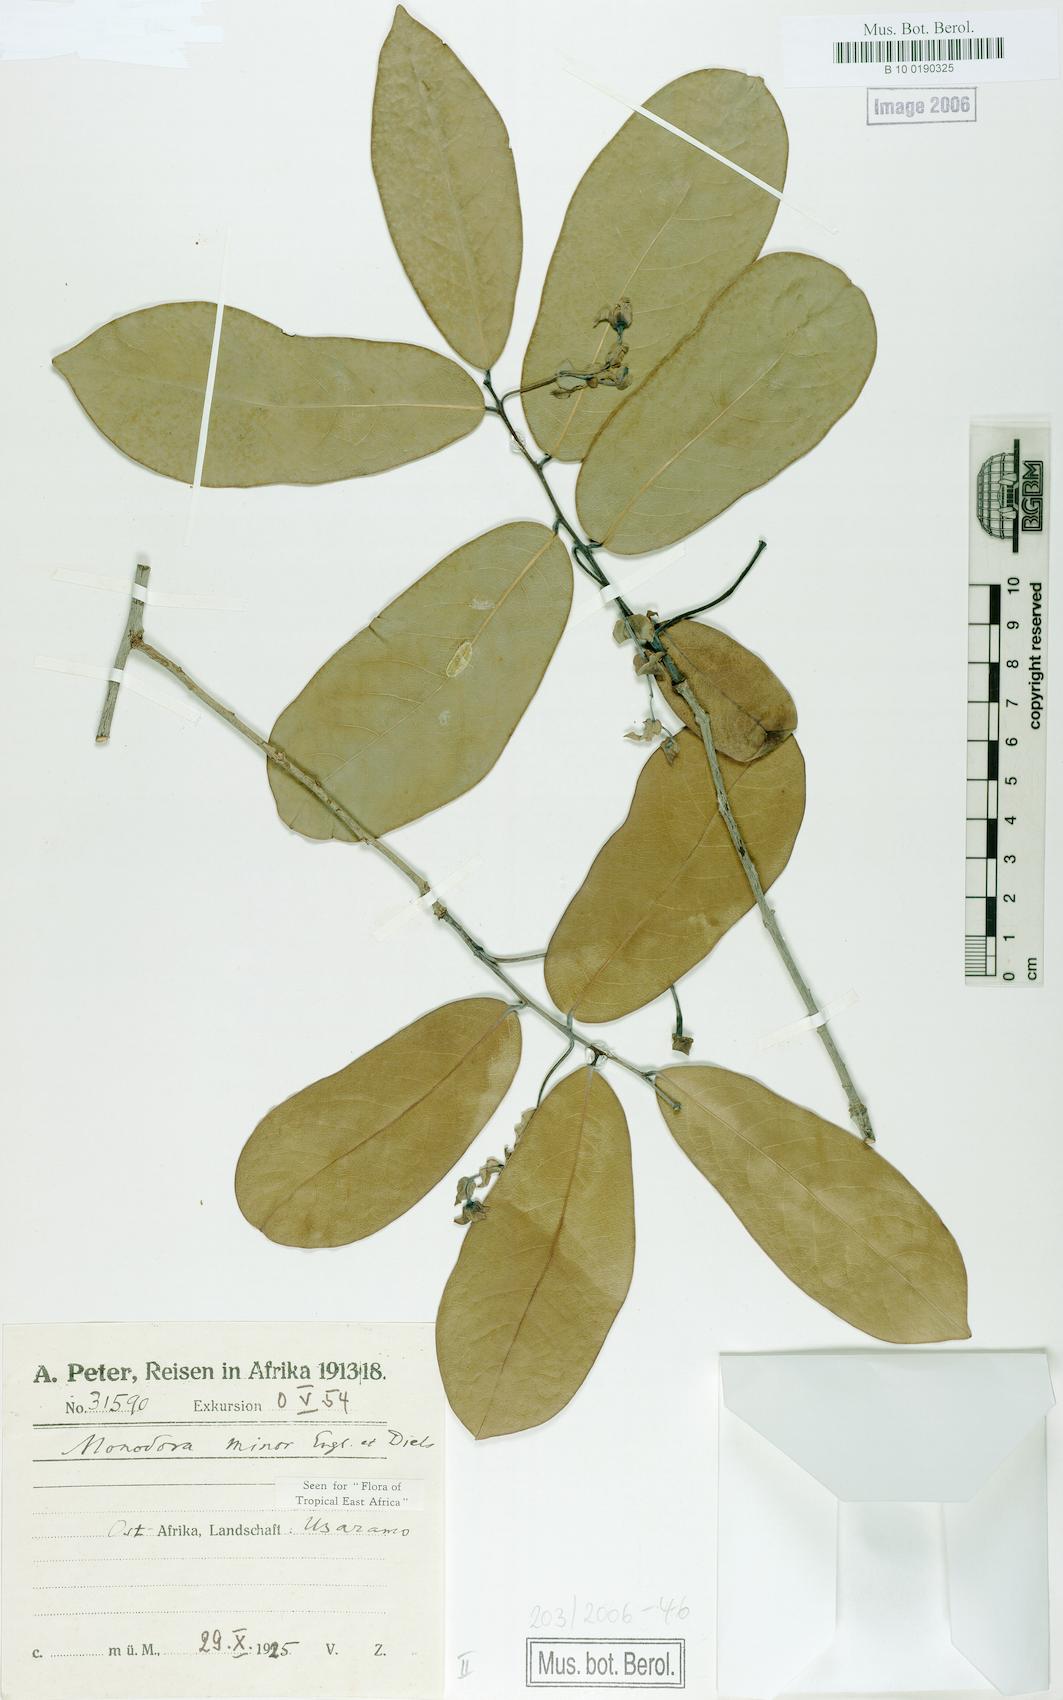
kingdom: Plantae
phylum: Tracheophyta
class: Magnoliopsida
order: Magnoliales
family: Annonaceae
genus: Monodora
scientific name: Monodora minor
